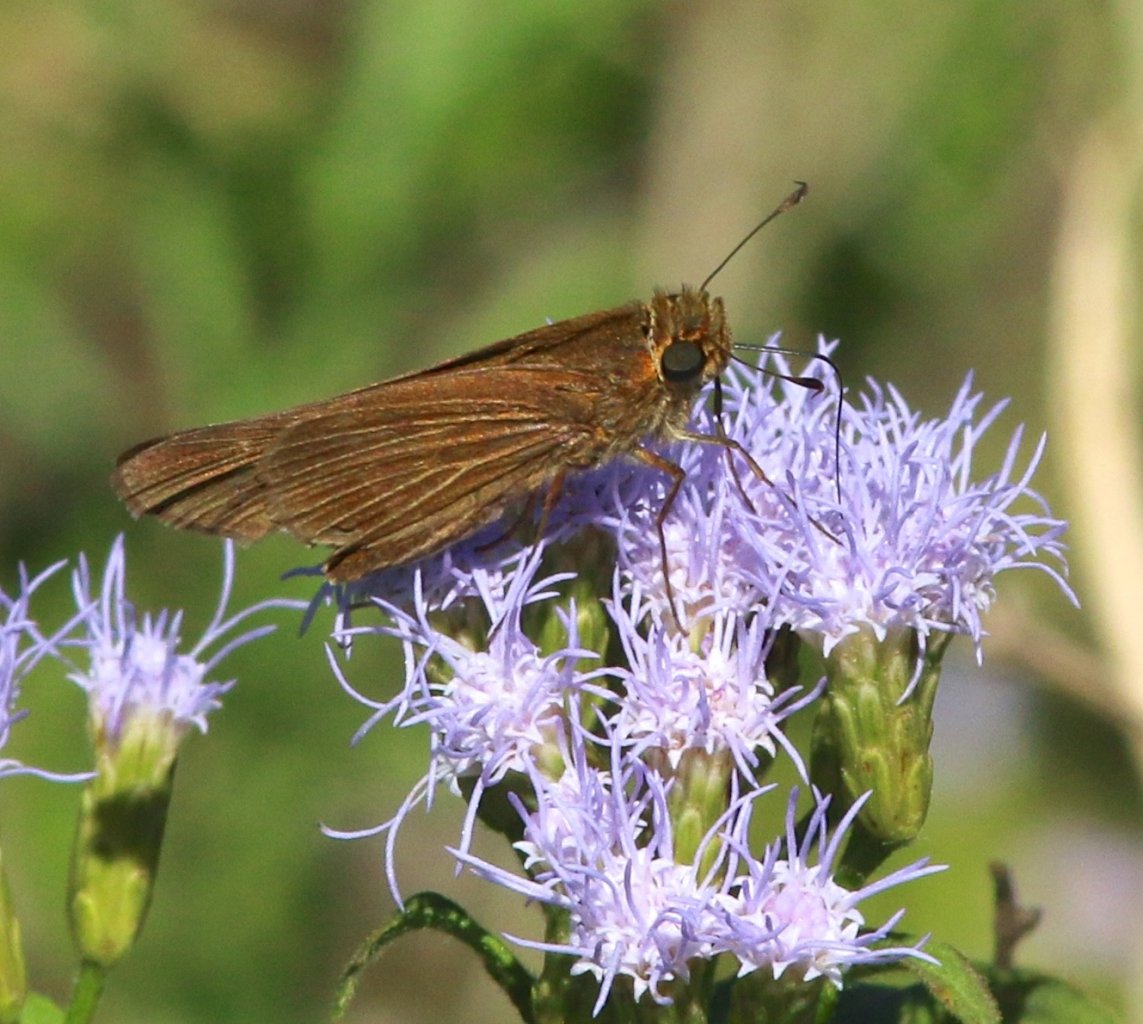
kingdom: Animalia
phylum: Arthropoda
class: Insecta
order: Lepidoptera
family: Hesperiidae
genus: Panoquina
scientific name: Panoquina ocola
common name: Ocola Skipper
